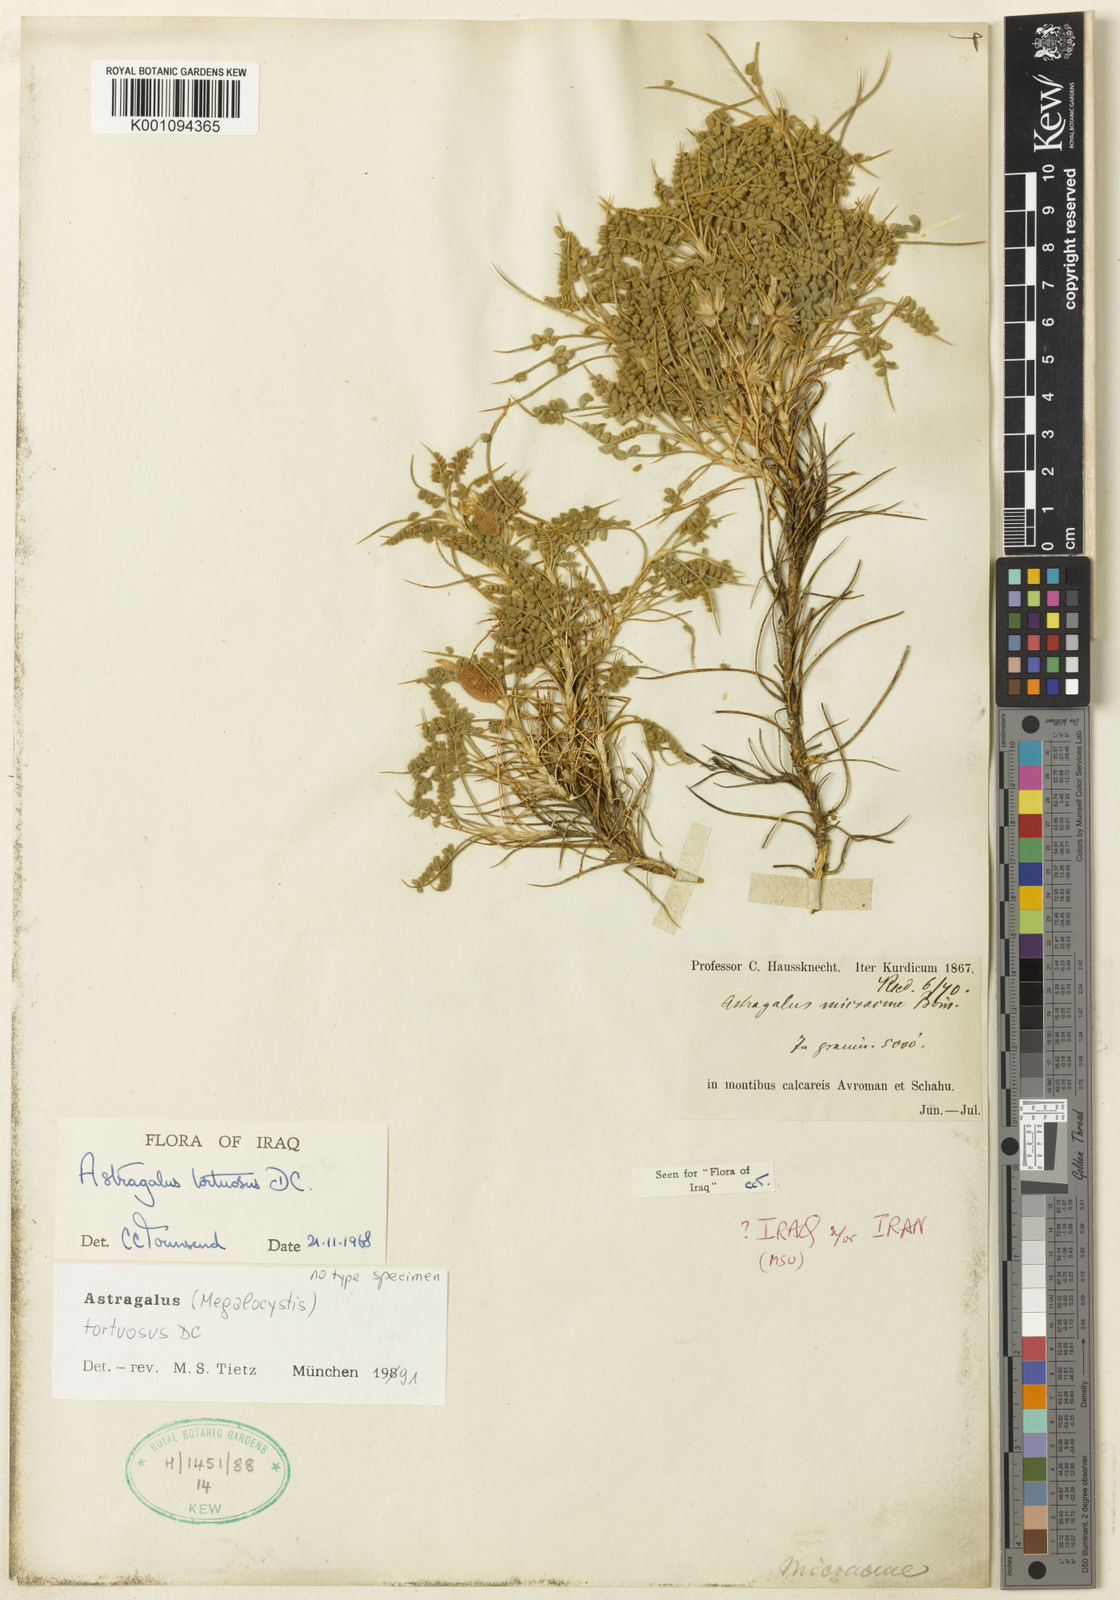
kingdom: Plantae
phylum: Tracheophyta
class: Magnoliopsida
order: Fabales
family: Fabaceae
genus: Astragalus
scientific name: Astragalus
